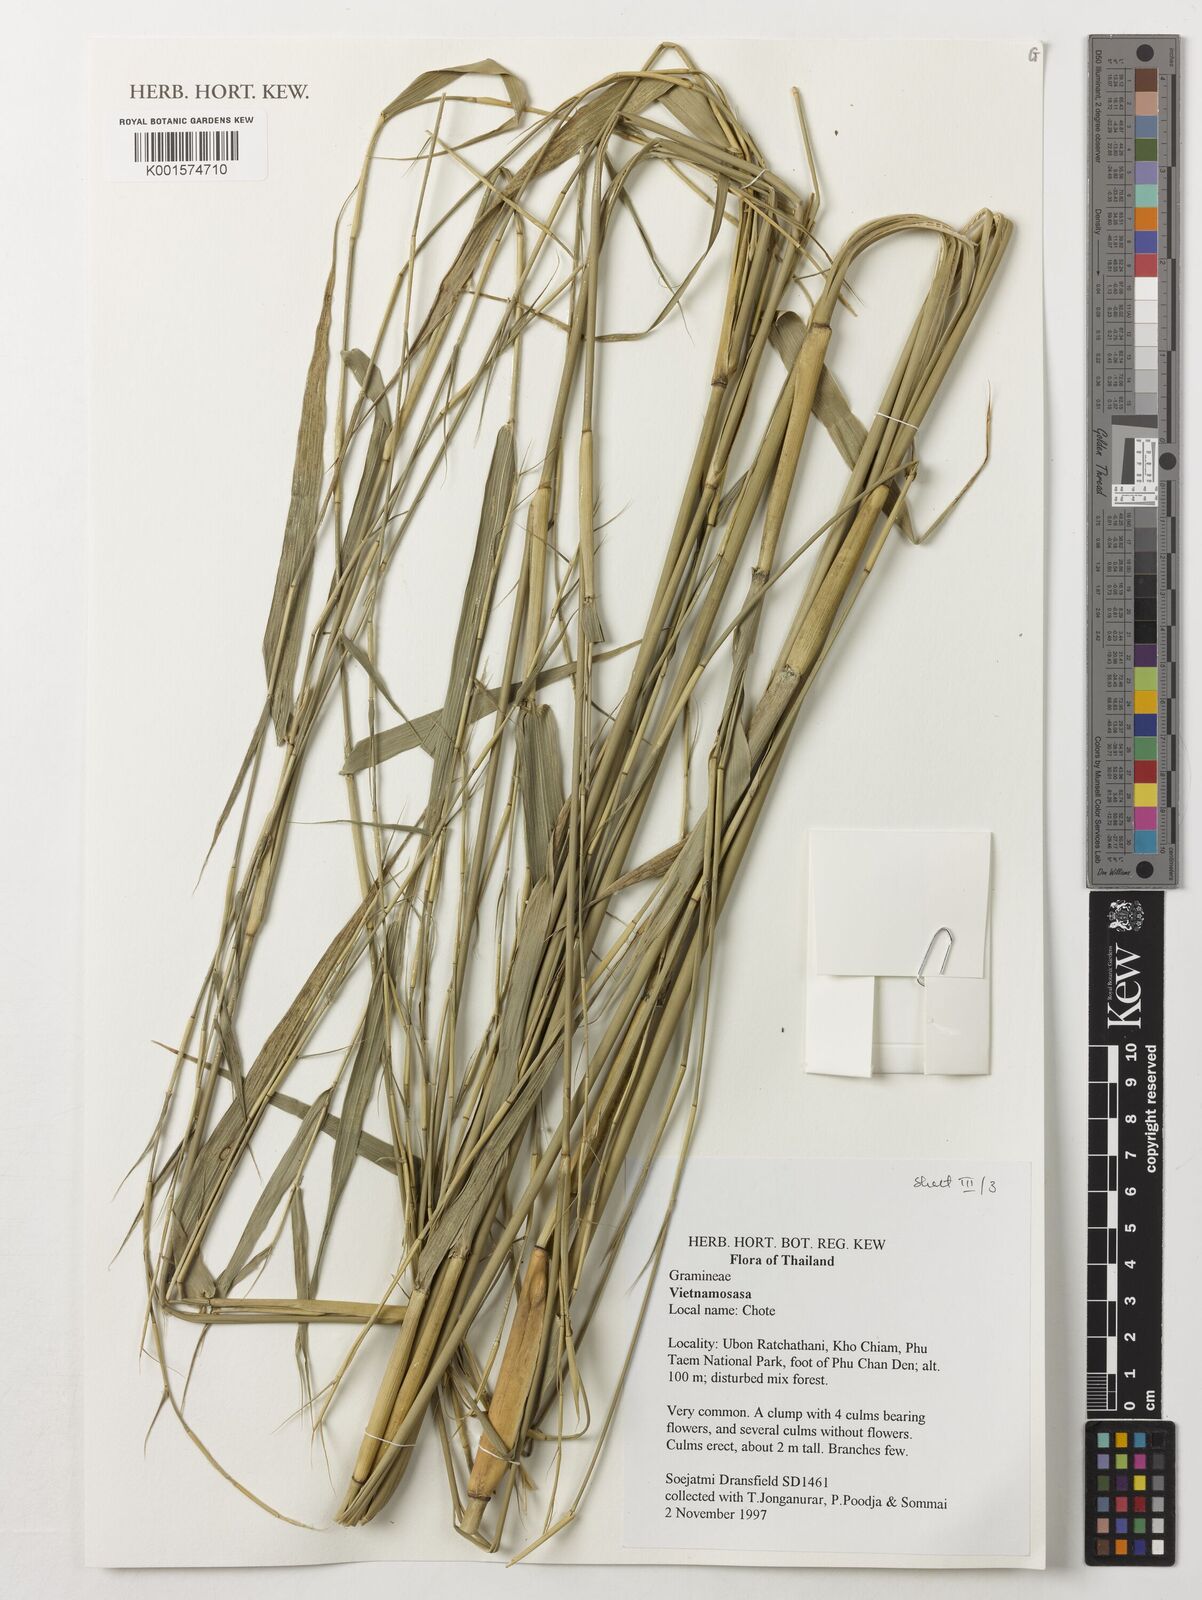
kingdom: Plantae
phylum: Tracheophyta
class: Liliopsida
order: Poales
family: Poaceae
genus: Vietnamosasa
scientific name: Vietnamosasa
